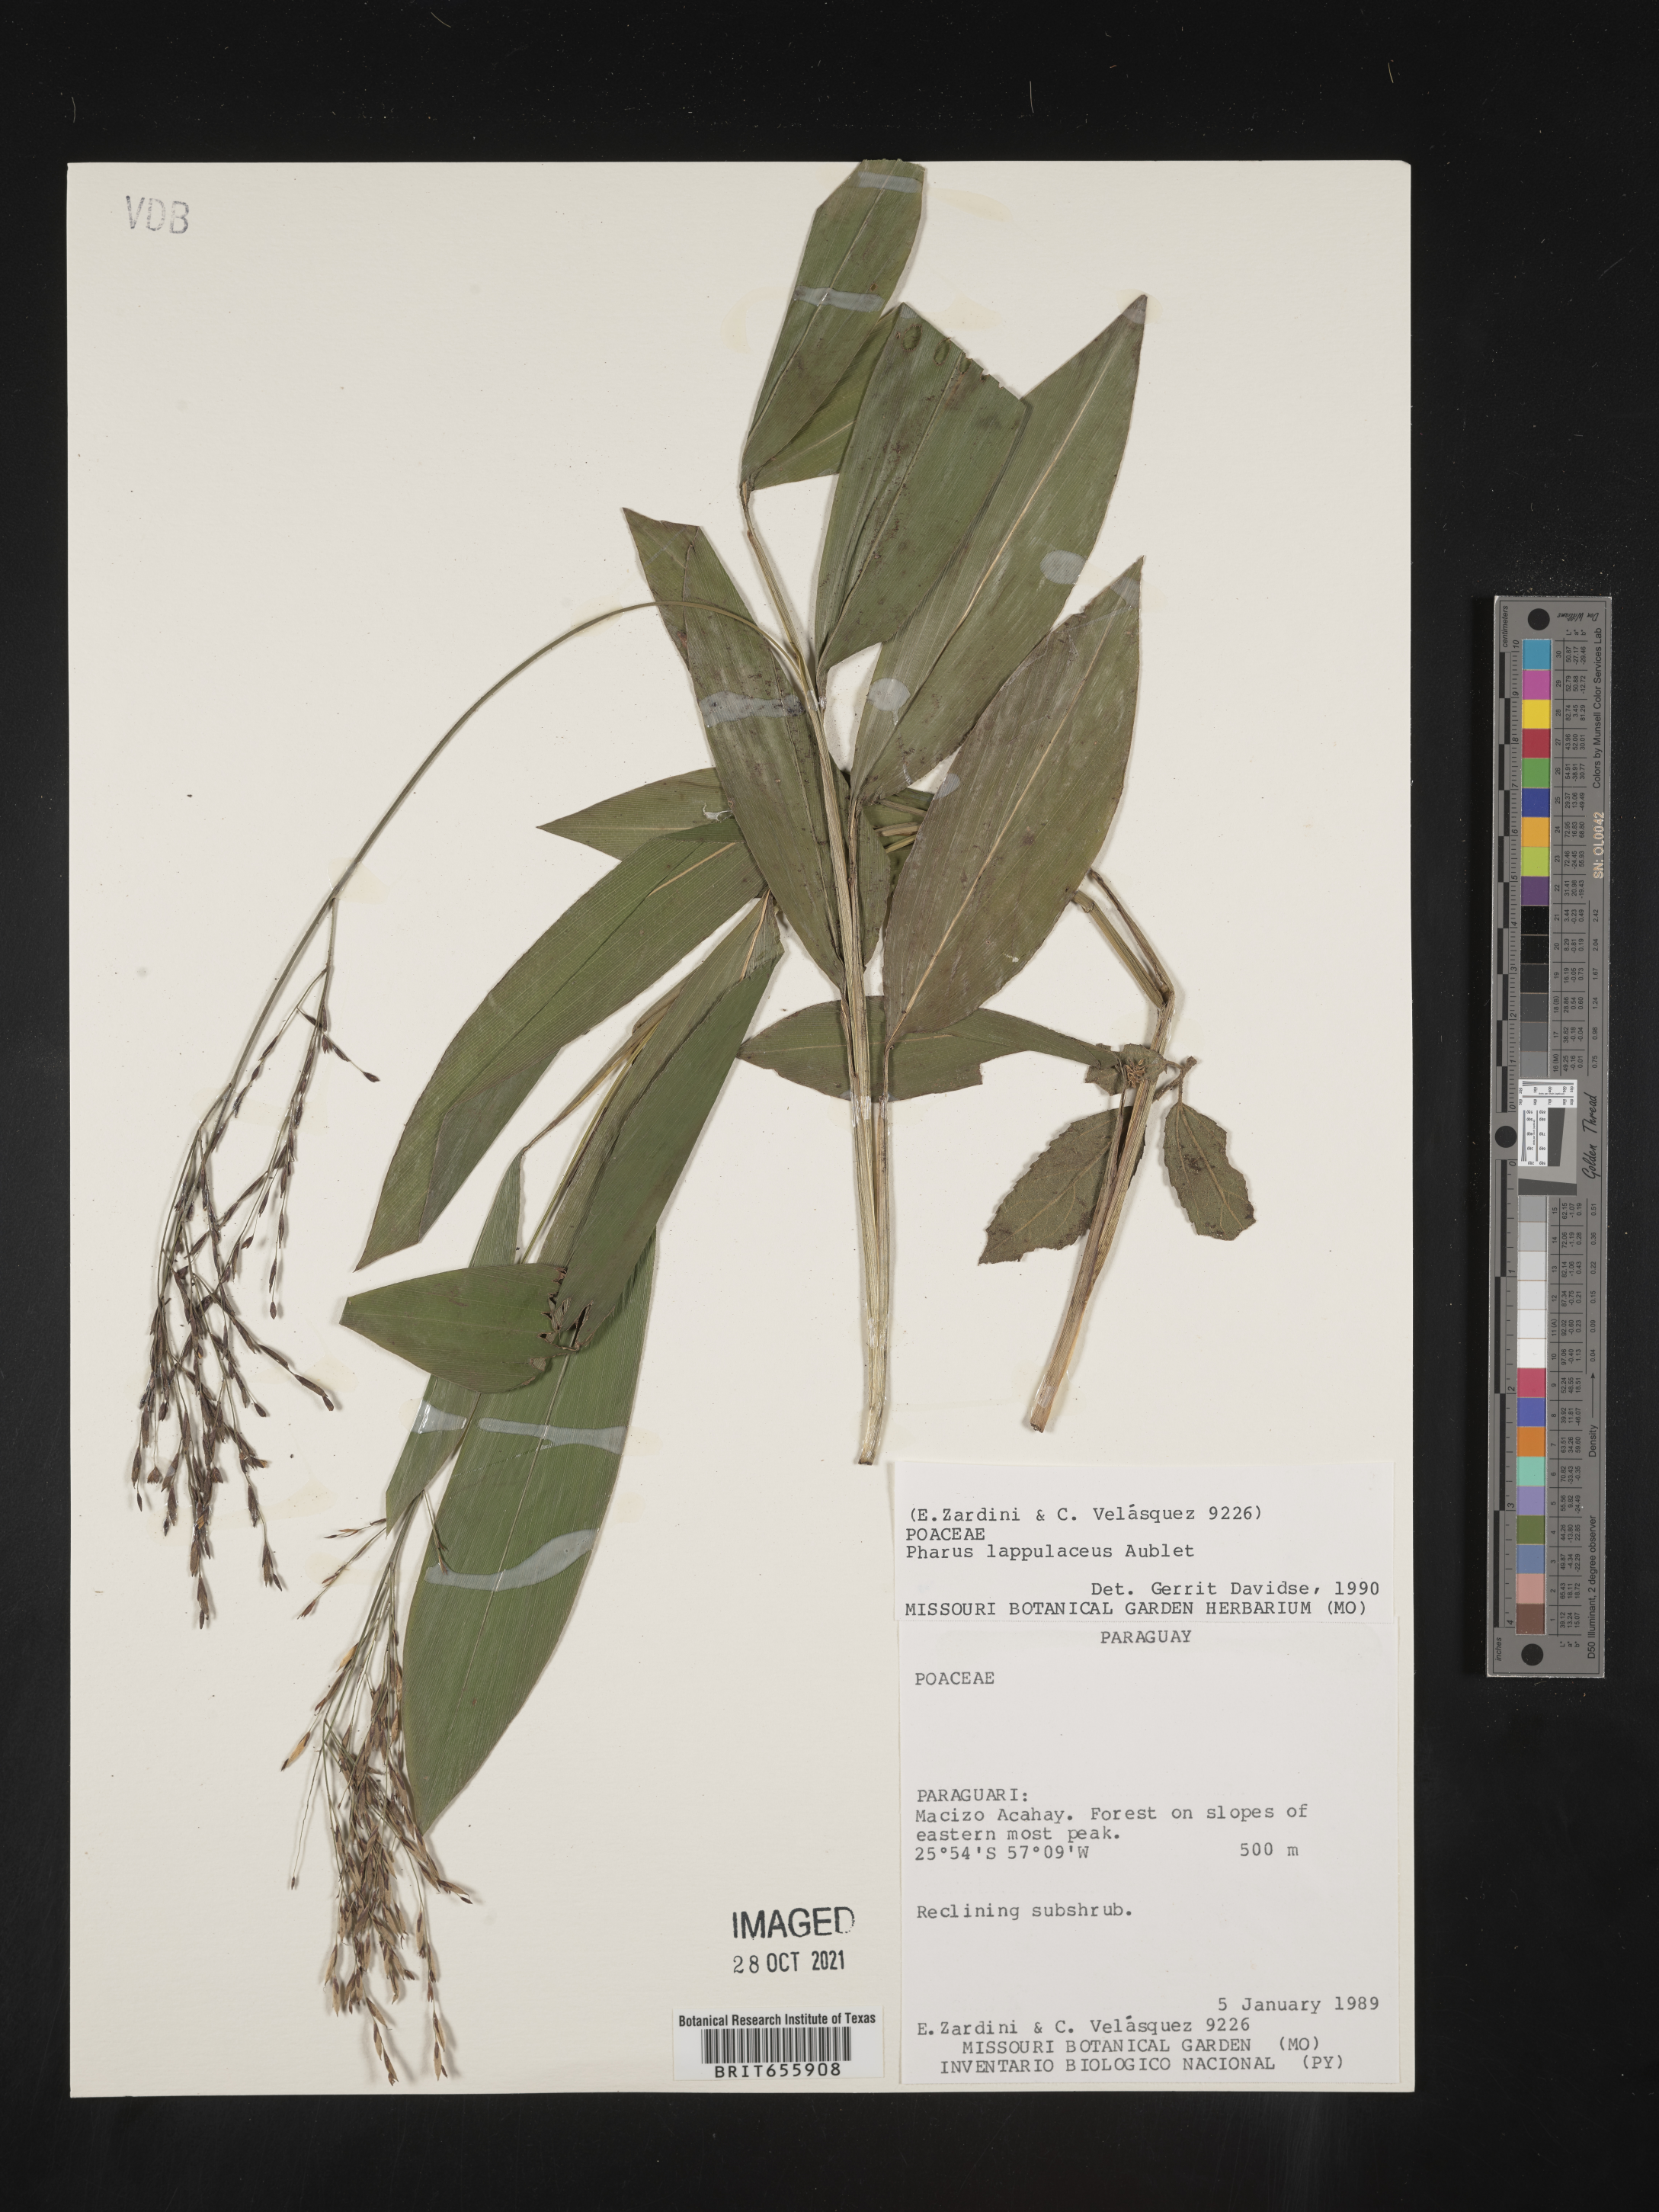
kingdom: Plantae
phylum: Tracheophyta
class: Liliopsida
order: Poales
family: Poaceae
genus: Pharus
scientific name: Pharus
